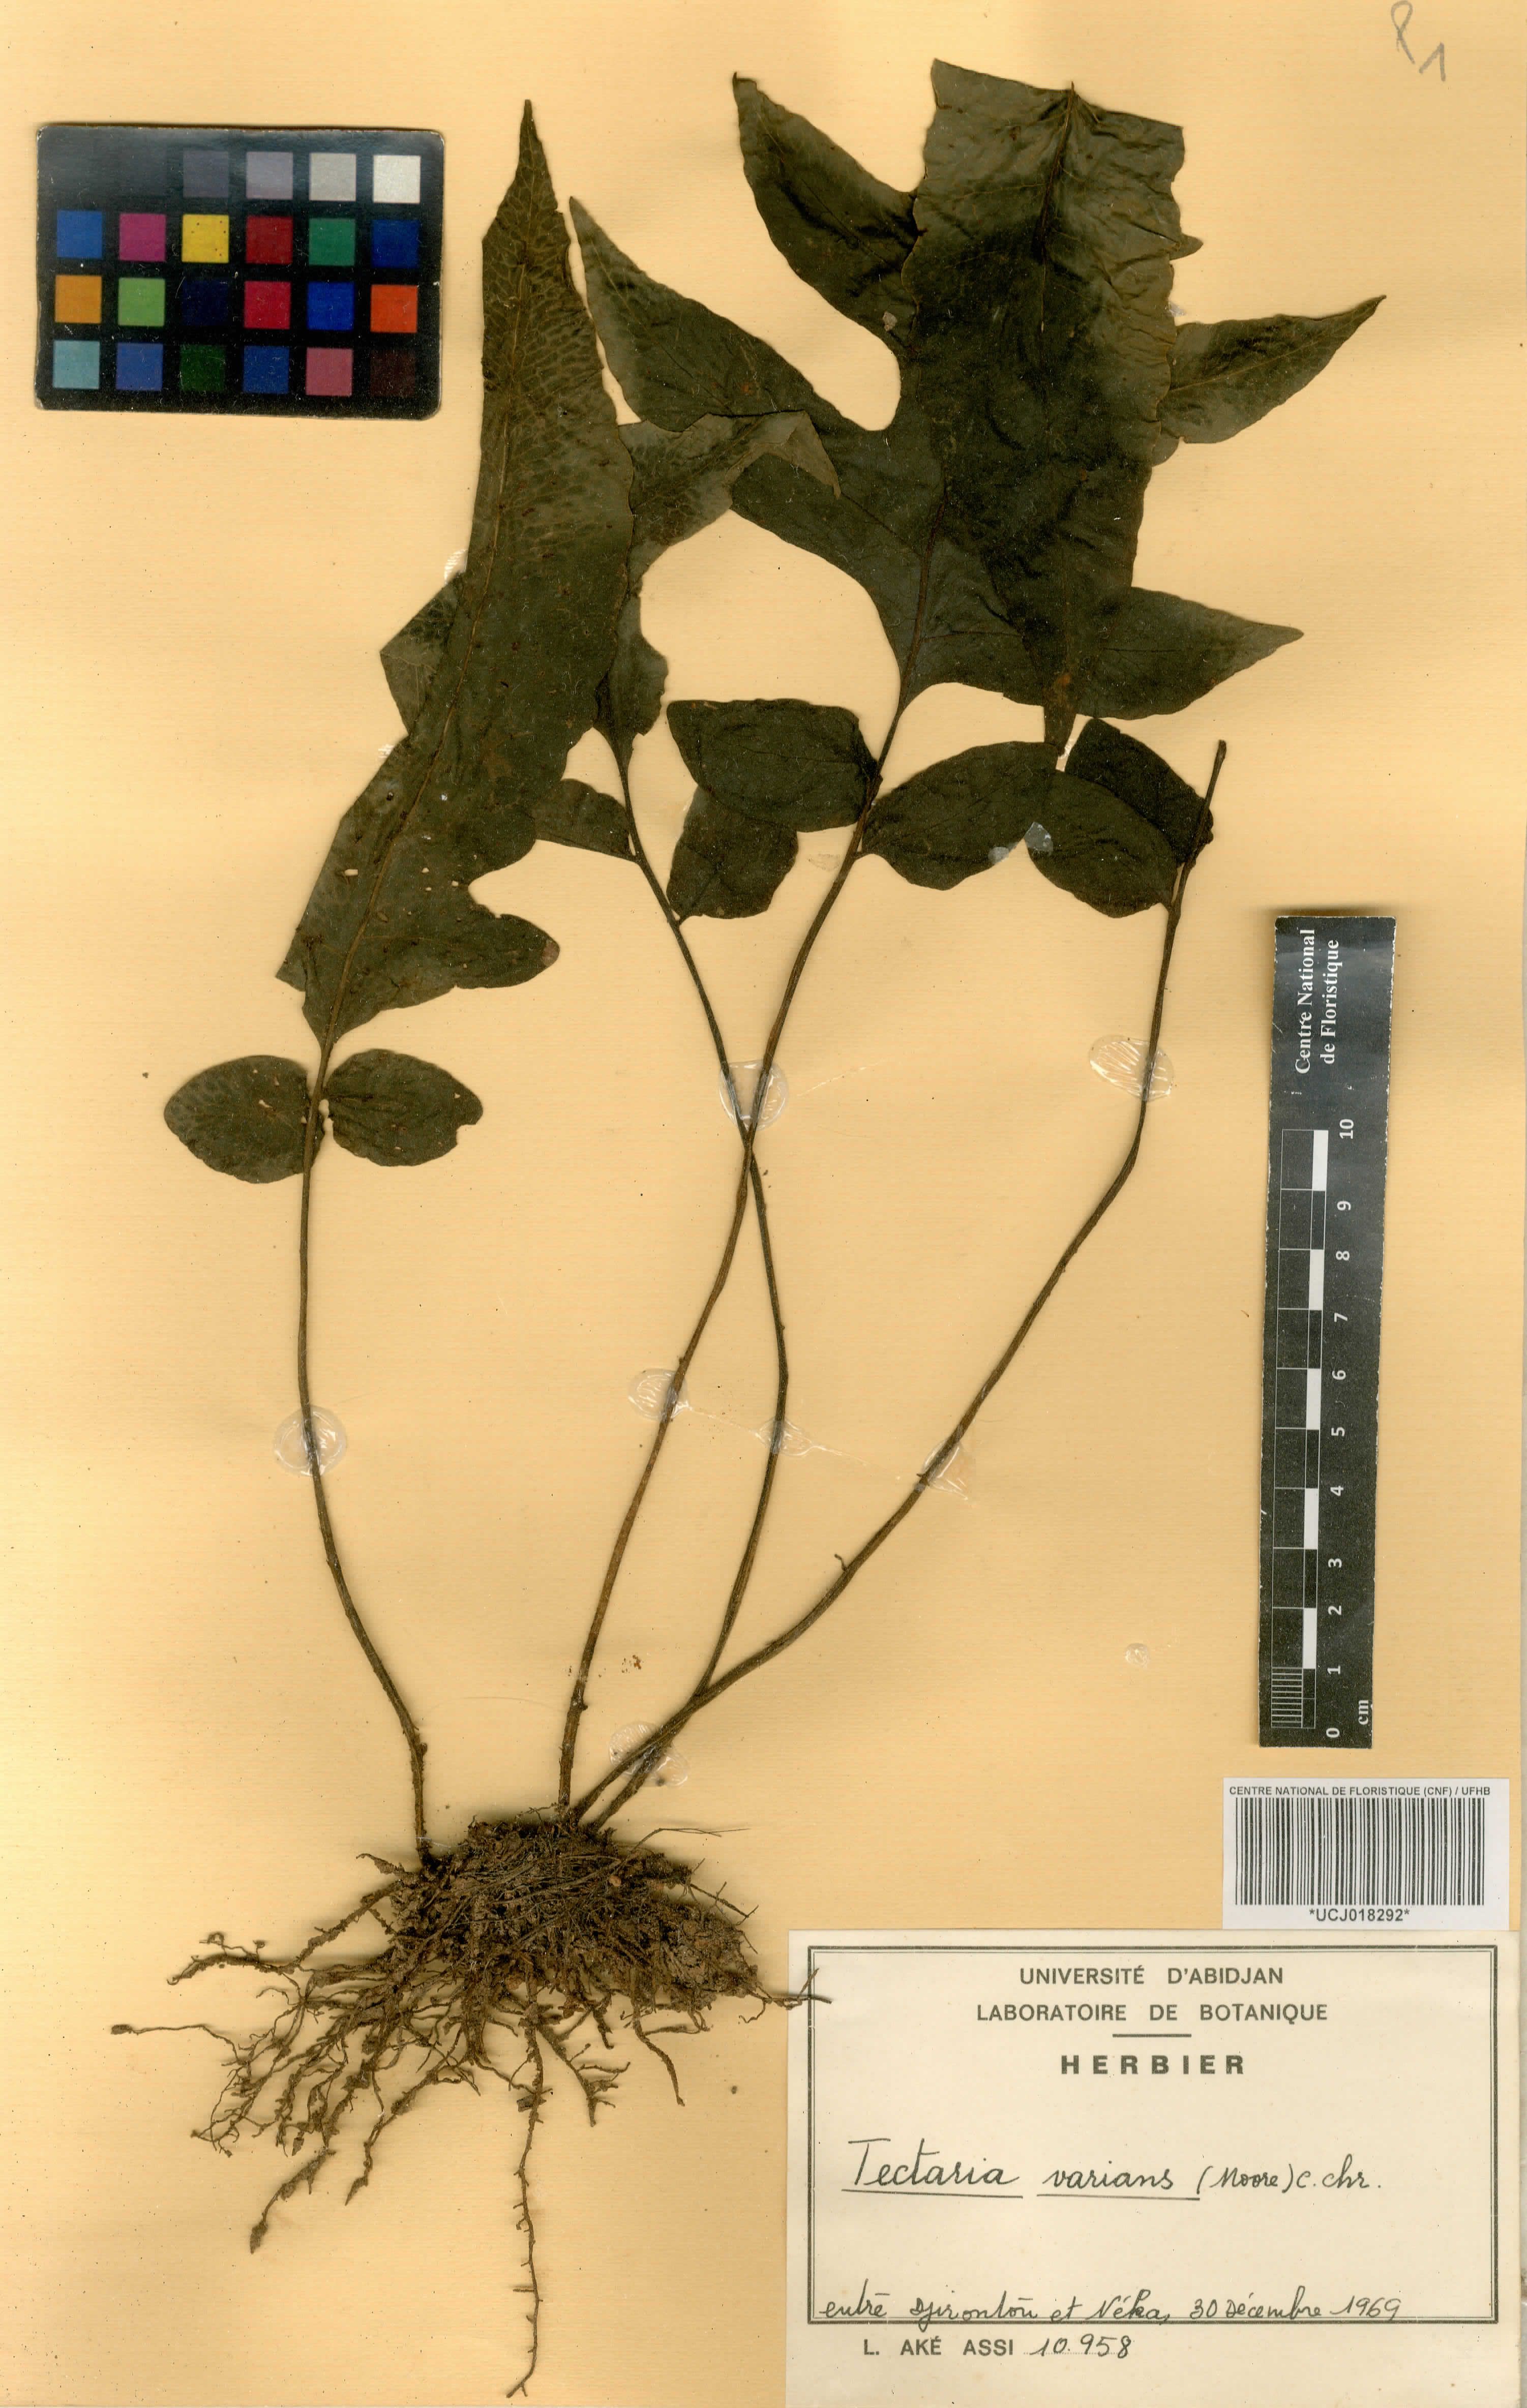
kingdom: Plantae
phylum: Tracheophyta
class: Polypodiopsida
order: Polypodiales
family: Tectariaceae
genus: Triplophyllum
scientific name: Triplophyllum varians
